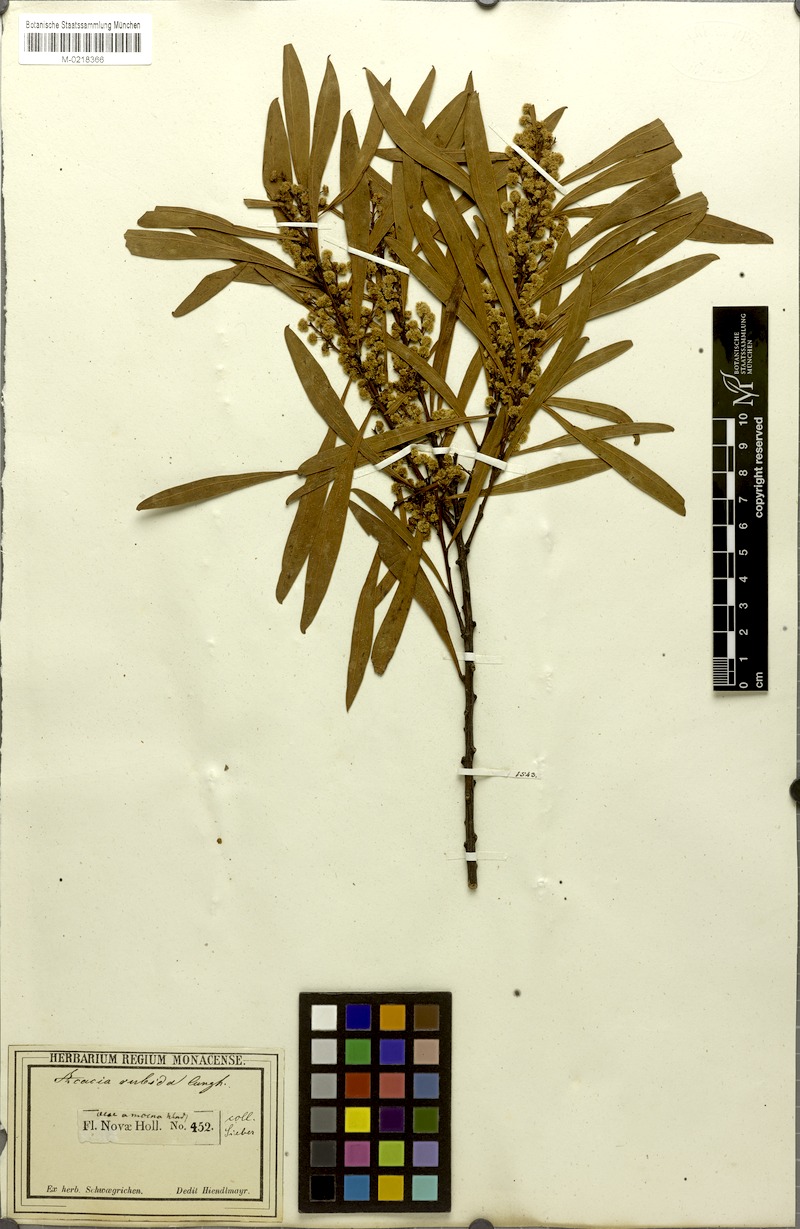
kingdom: Plantae
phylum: Tracheophyta
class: Magnoliopsida
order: Fabales
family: Fabaceae
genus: Acacia
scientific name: Acacia rubida
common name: Red leaf wattle
